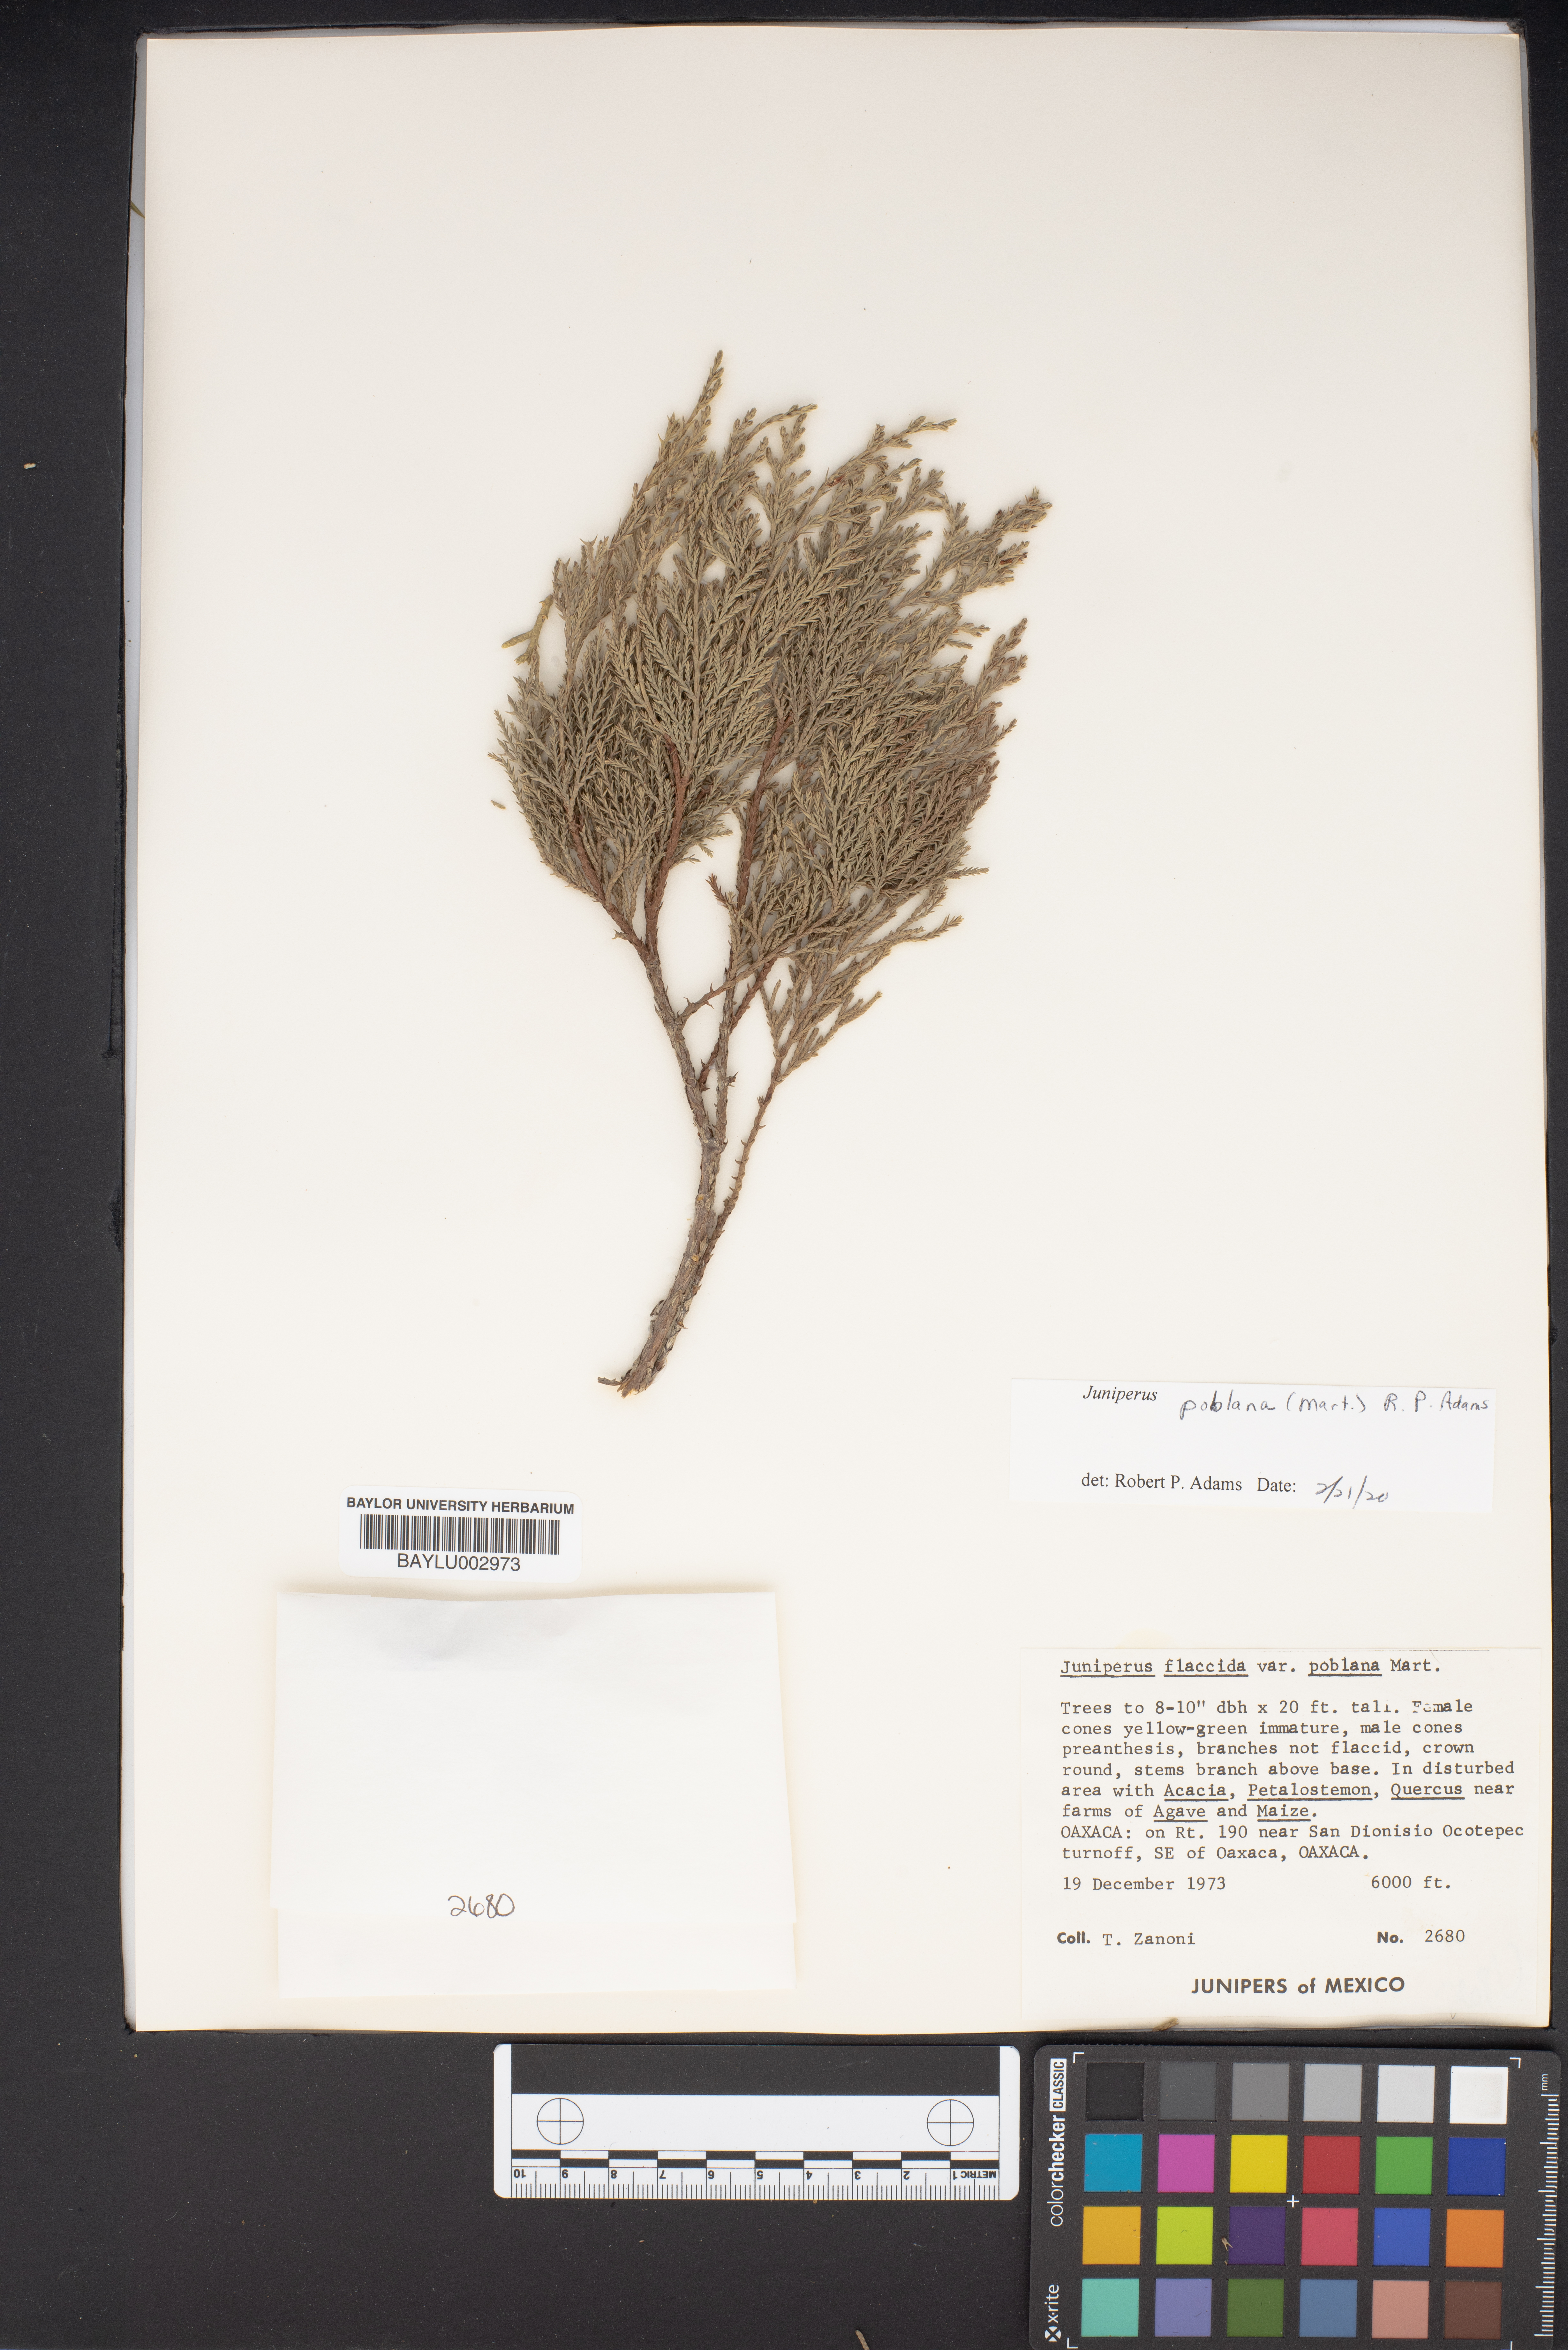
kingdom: Plantae
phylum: Tracheophyta
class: Pinopsida
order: Pinales
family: Cupressaceae
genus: Juniperus
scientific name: Juniperus flaccida
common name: Drooping juniper
